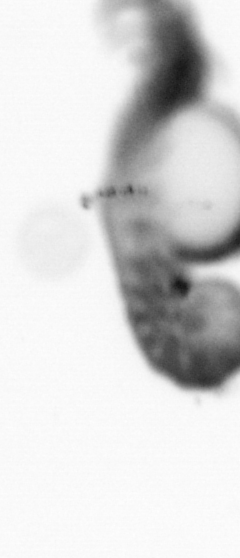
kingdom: Animalia
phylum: Annelida
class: Polychaeta
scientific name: Polychaeta
